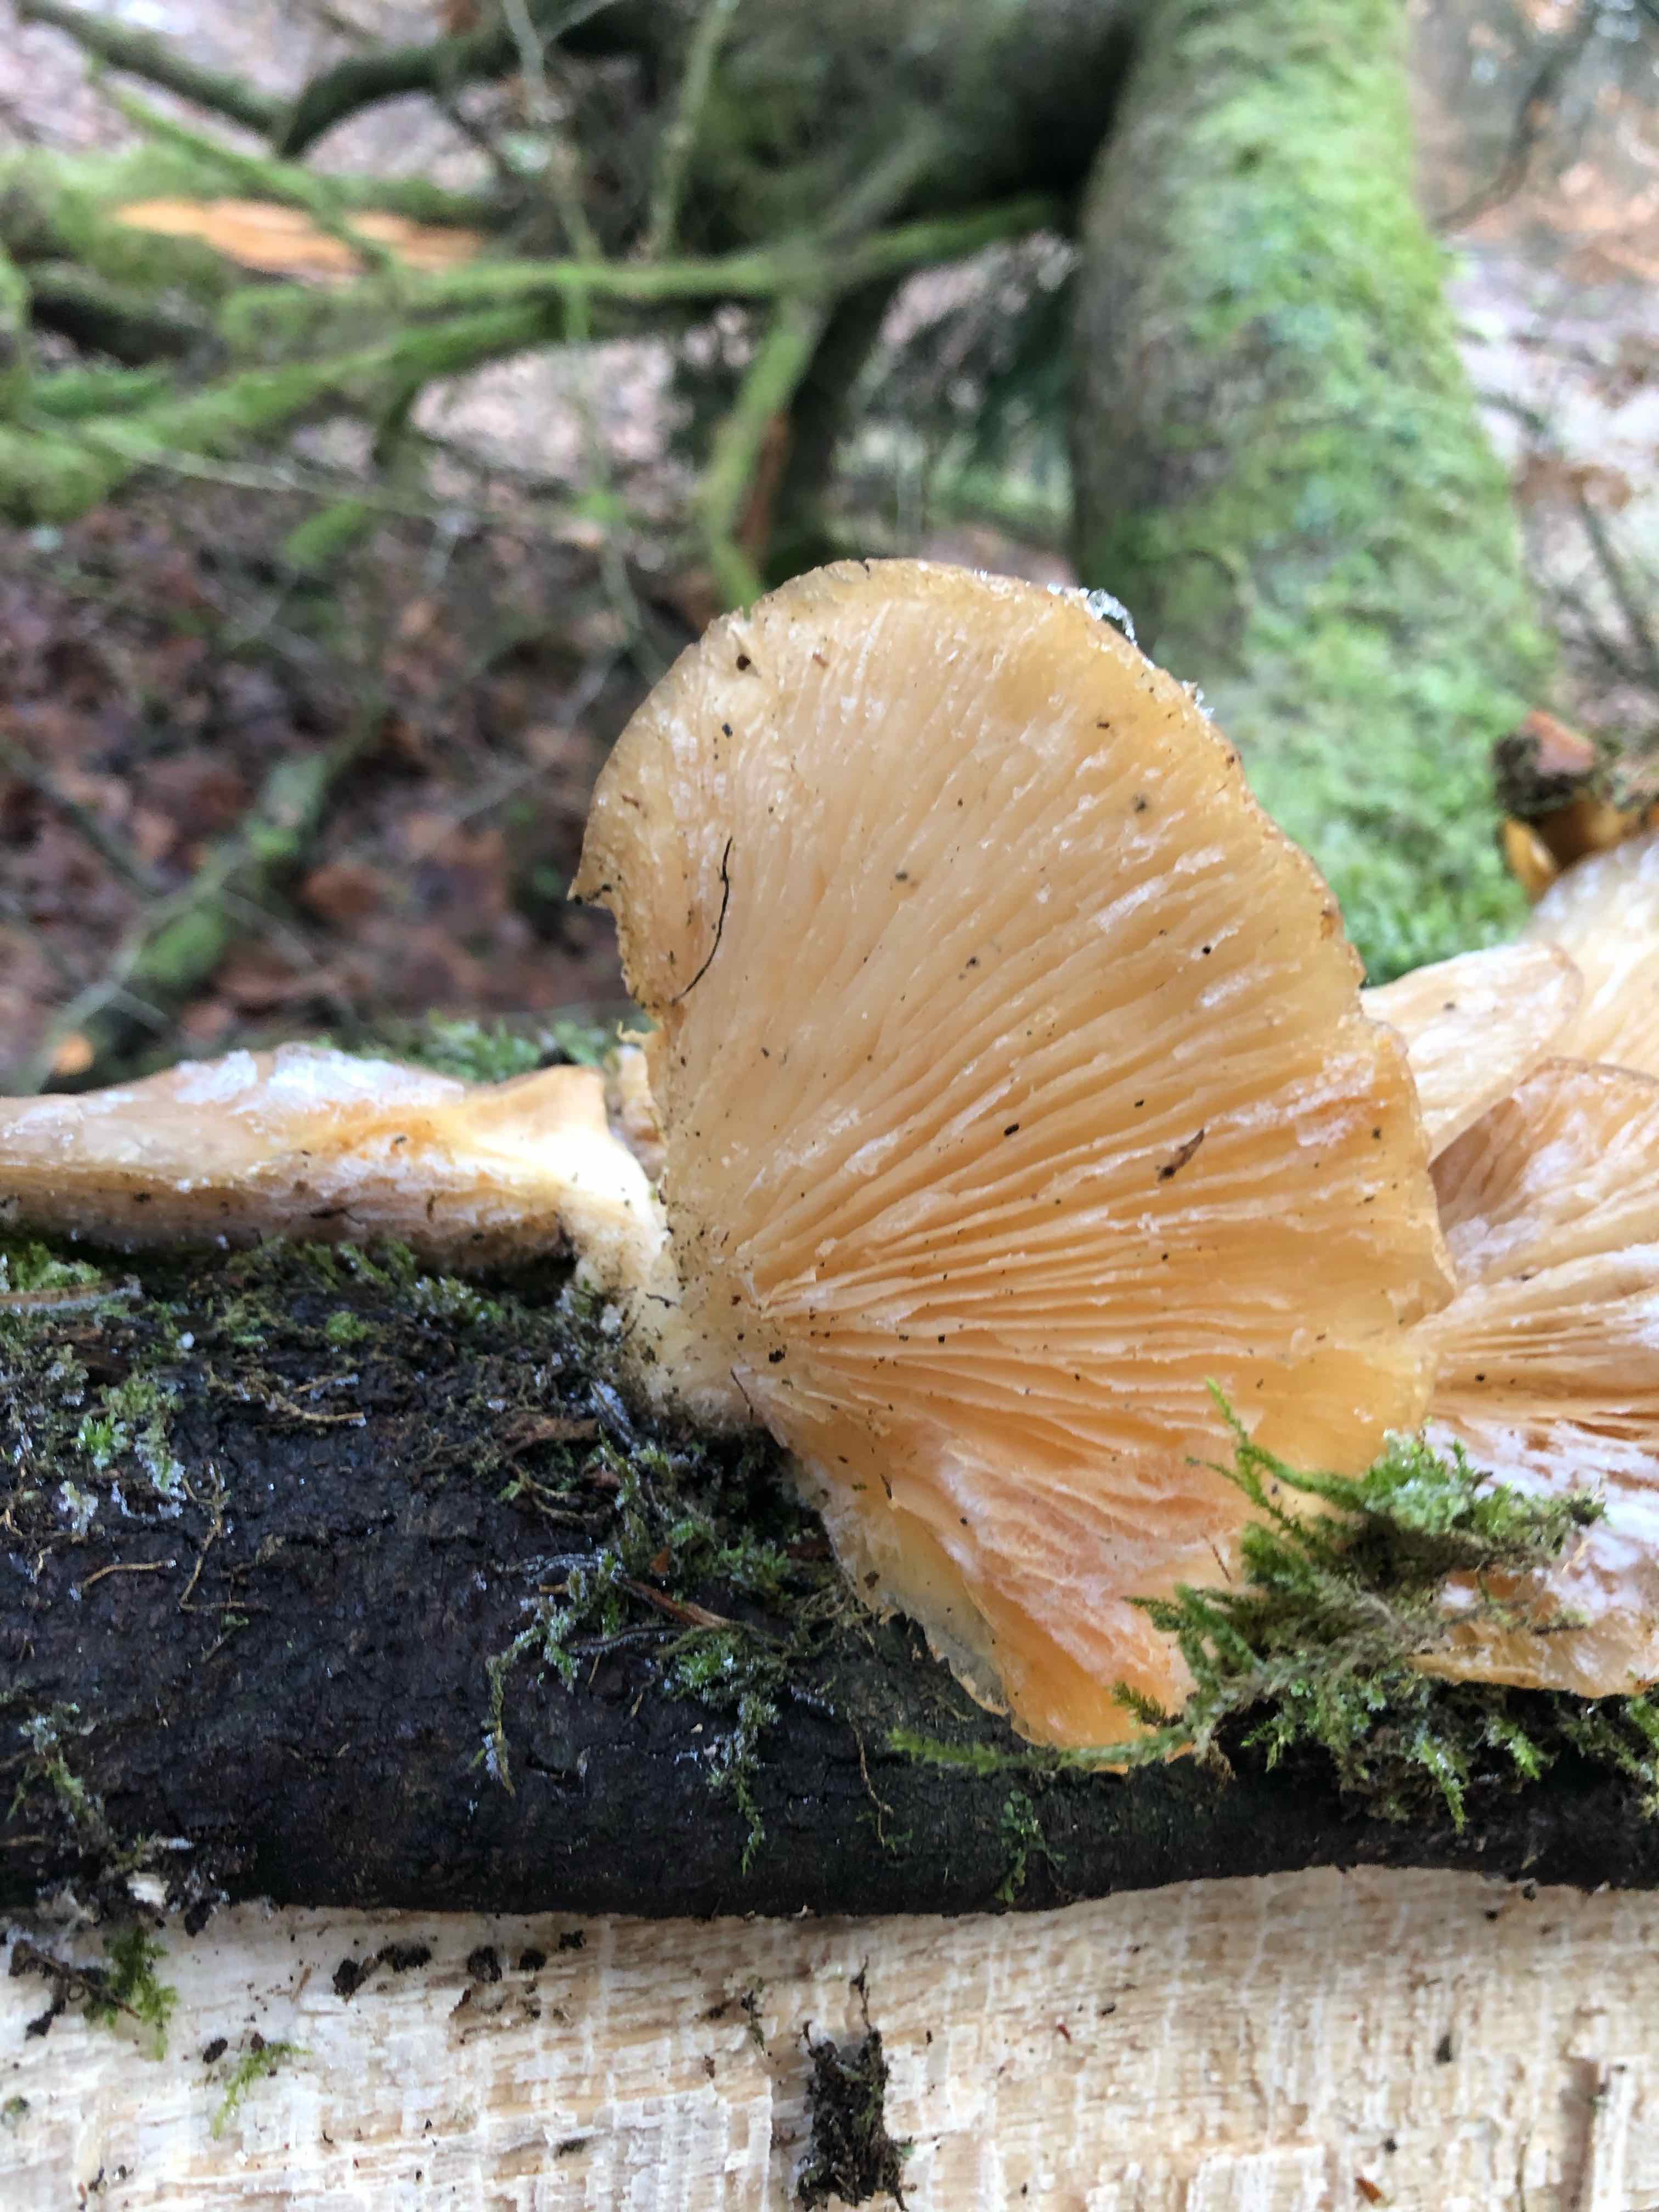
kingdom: Fungi
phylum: Basidiomycota
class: Agaricomycetes
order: Agaricales
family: Pleurotaceae
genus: Pleurotus
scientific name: Pleurotus
